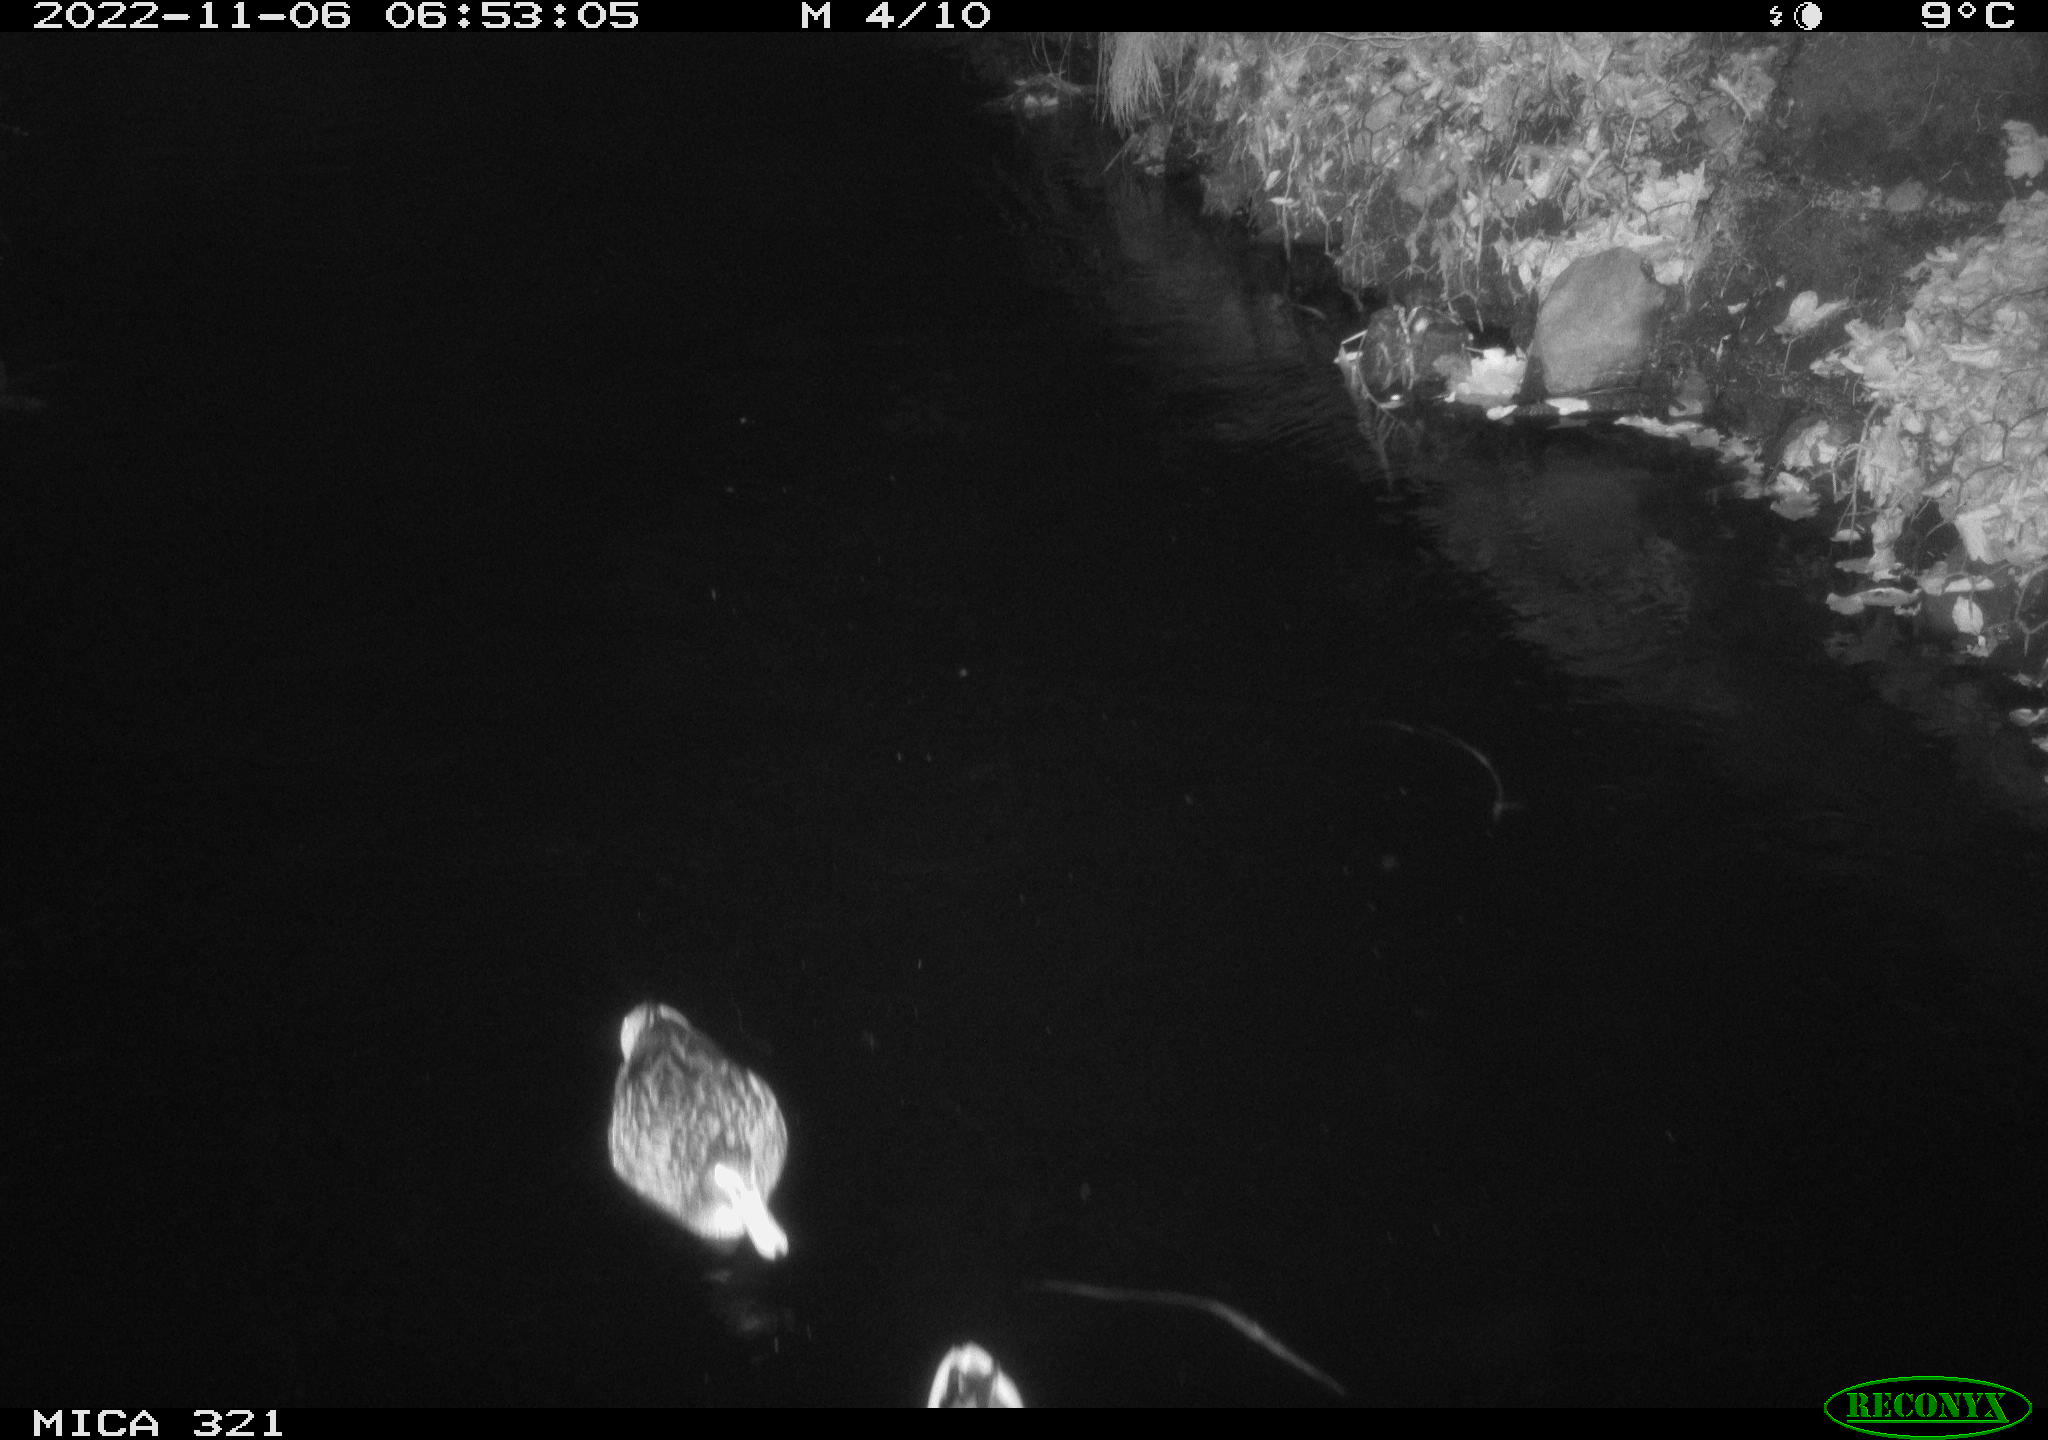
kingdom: Animalia
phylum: Chordata
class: Aves
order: Anseriformes
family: Anatidae
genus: Anas
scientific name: Anas
